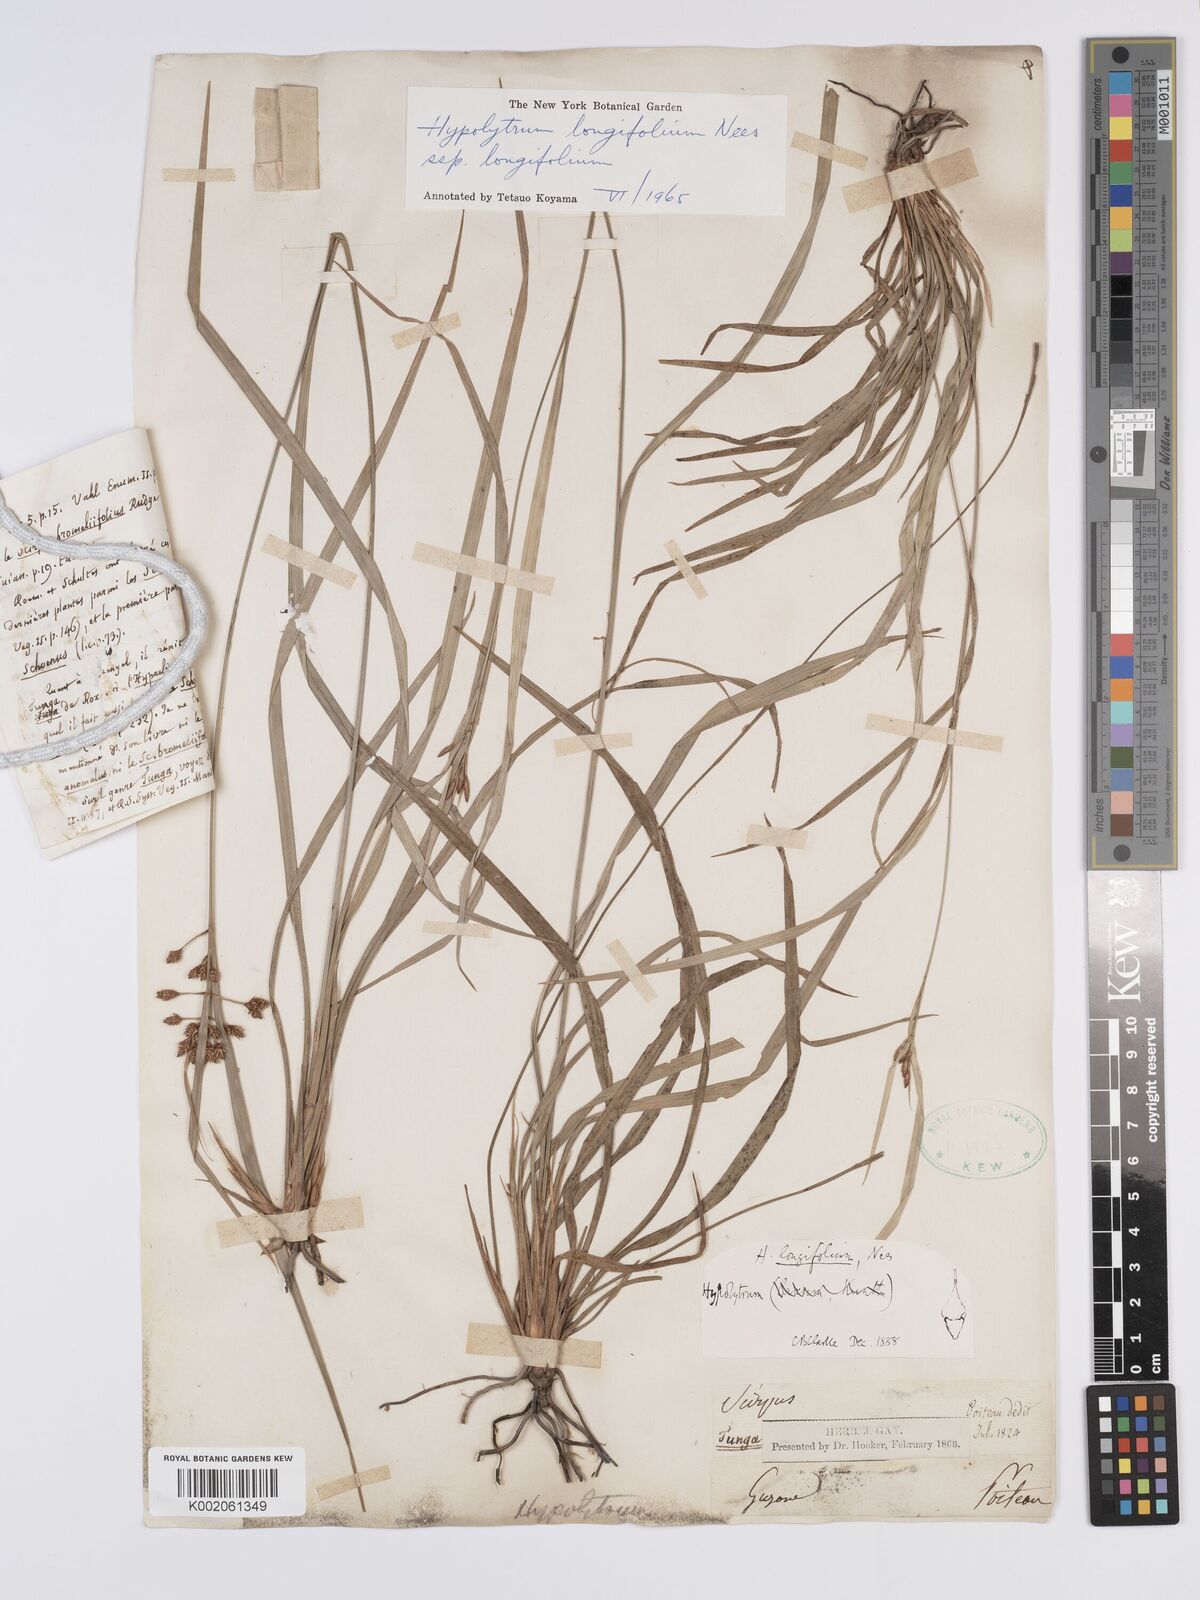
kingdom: Plantae
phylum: Tracheophyta
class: Liliopsida
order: Poales
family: Cyperaceae
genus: Hypolytrum
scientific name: Hypolytrum longifolium
